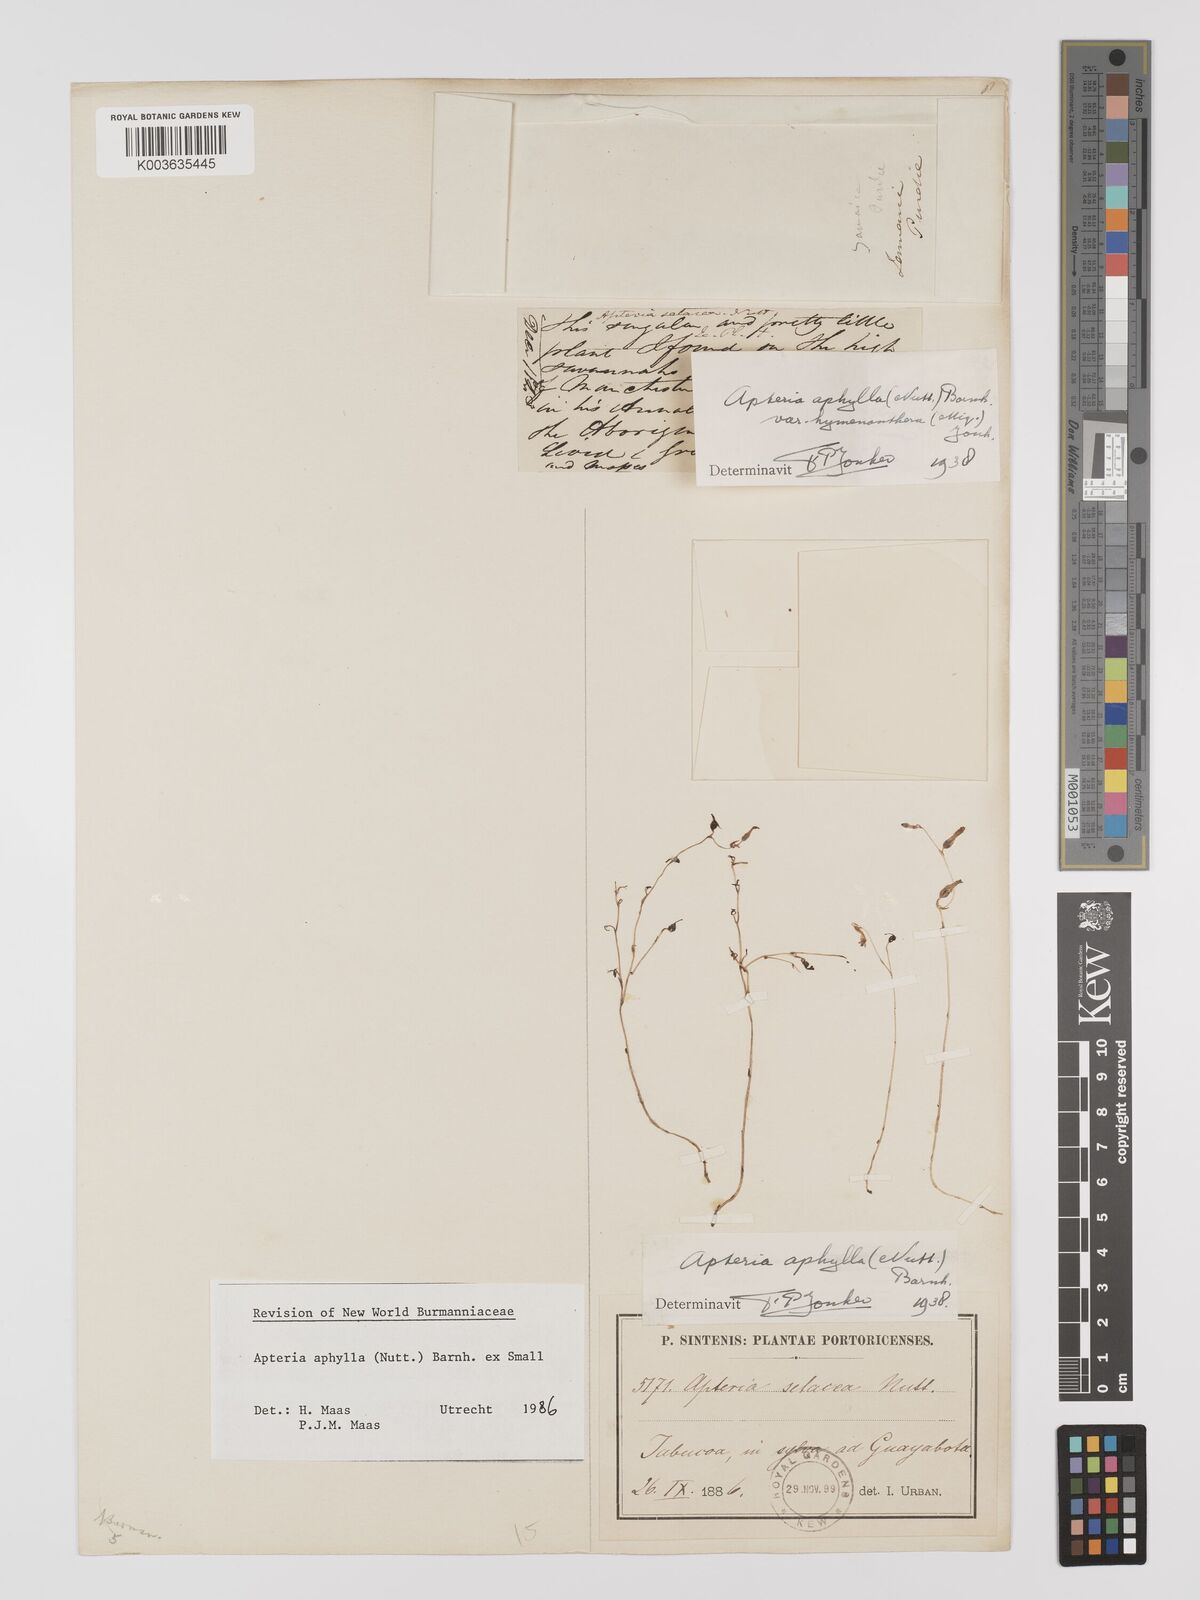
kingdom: Plantae
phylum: Tracheophyta
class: Liliopsida
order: Dioscoreales
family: Burmanniaceae
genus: Apteria
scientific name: Apteria aphylla
